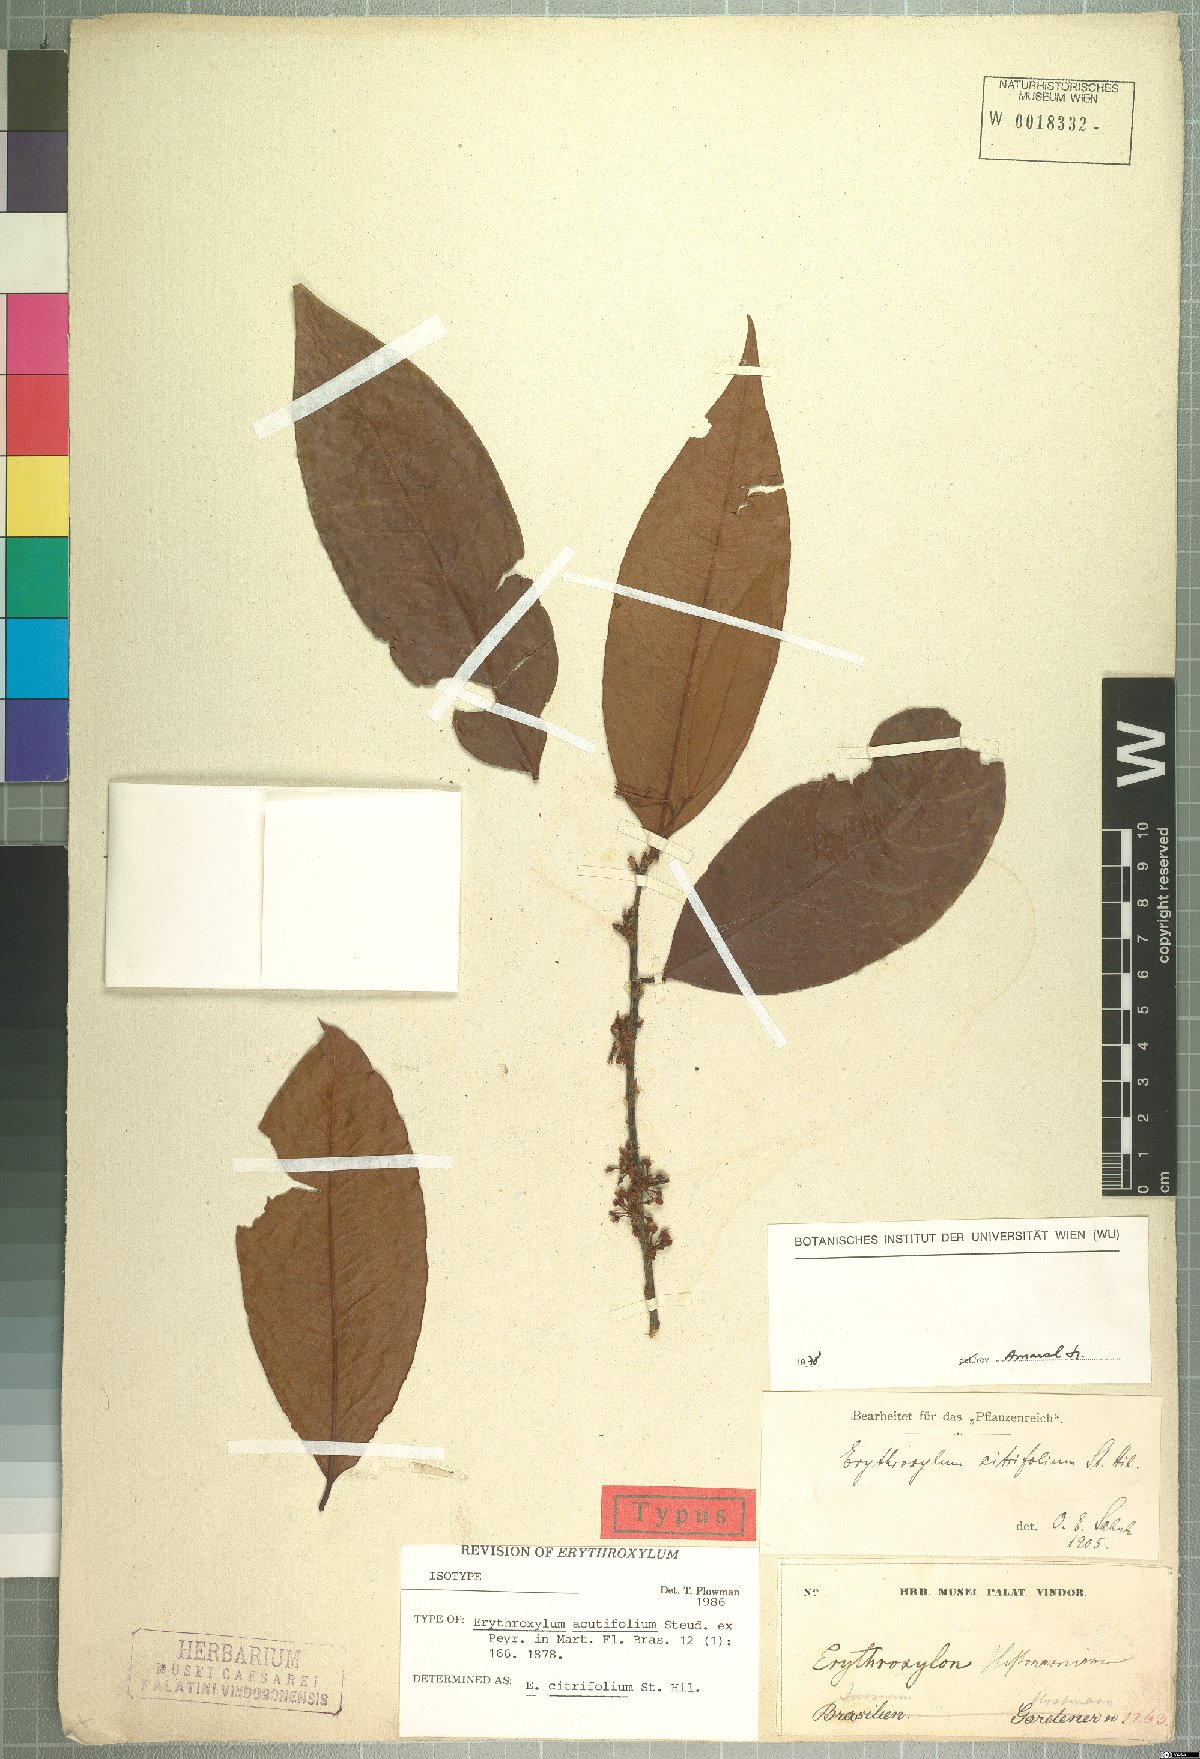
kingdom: Plantae
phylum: Tracheophyta
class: Magnoliopsida
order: Malpighiales
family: Erythroxylaceae
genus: Erythroxylum
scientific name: Erythroxylum citrifolium
